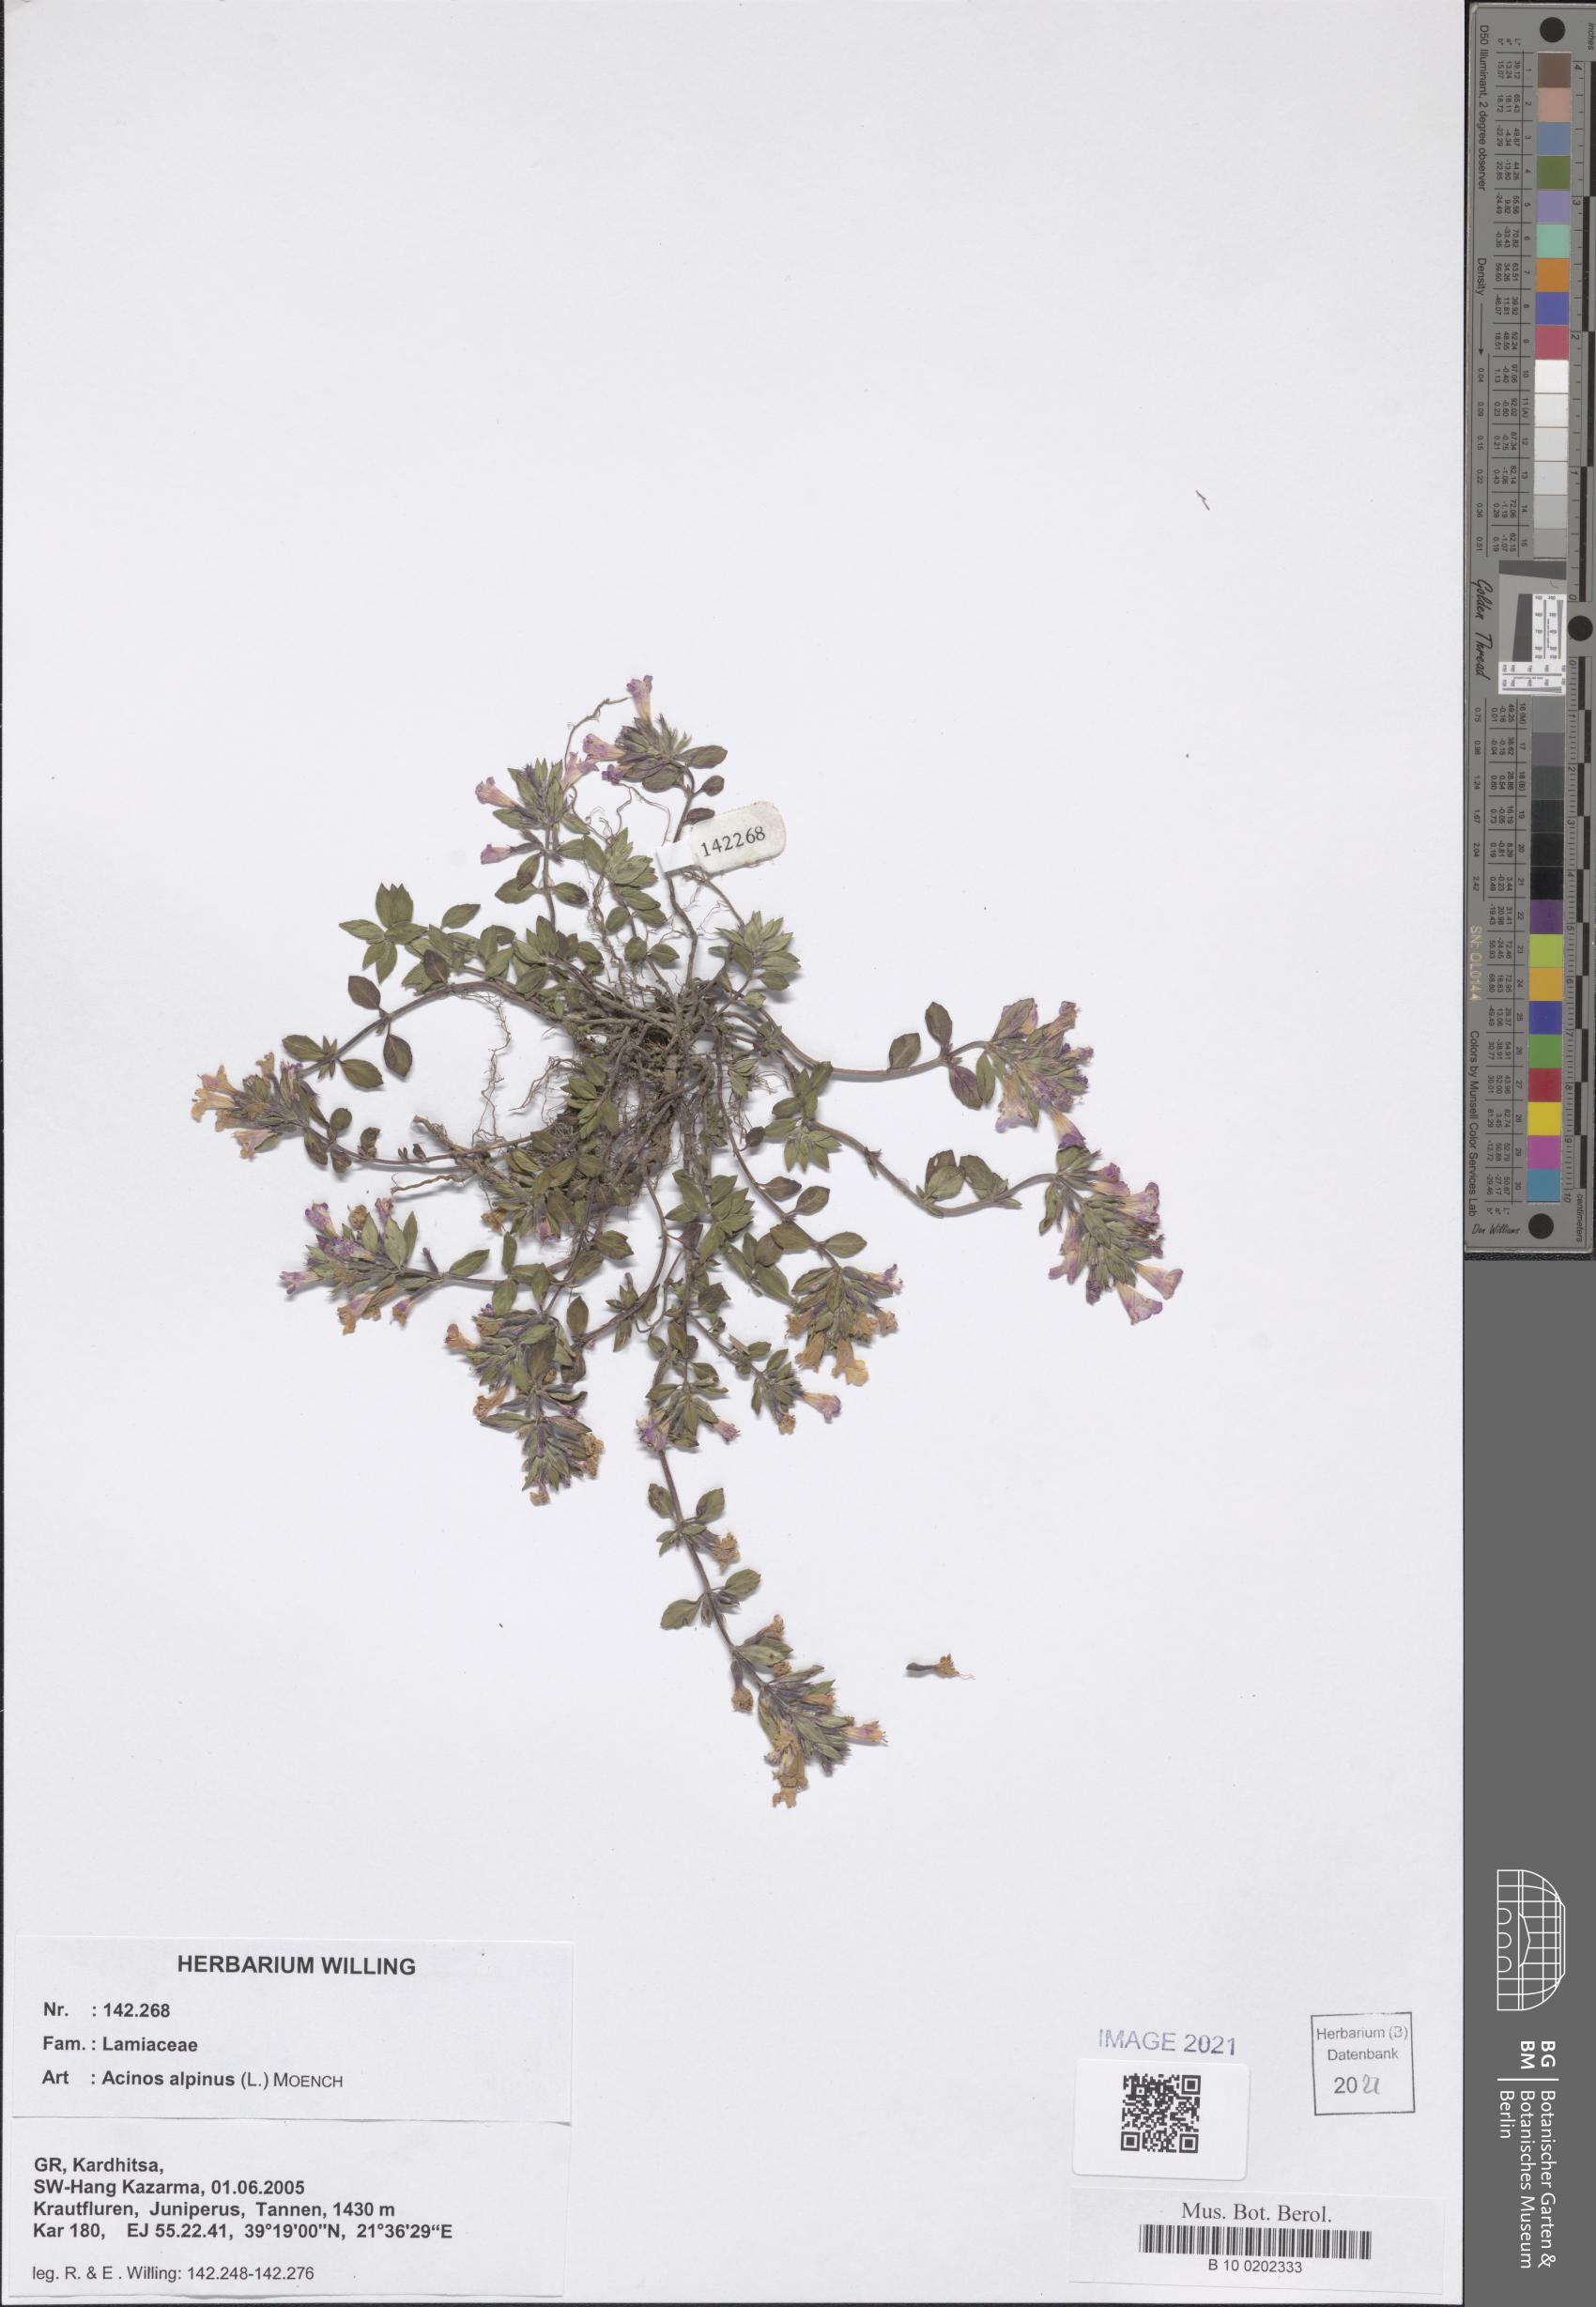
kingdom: Plantae
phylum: Tracheophyta
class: Magnoliopsida
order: Lamiales
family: Lamiaceae
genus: Clinopodium
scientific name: Clinopodium alpinum
